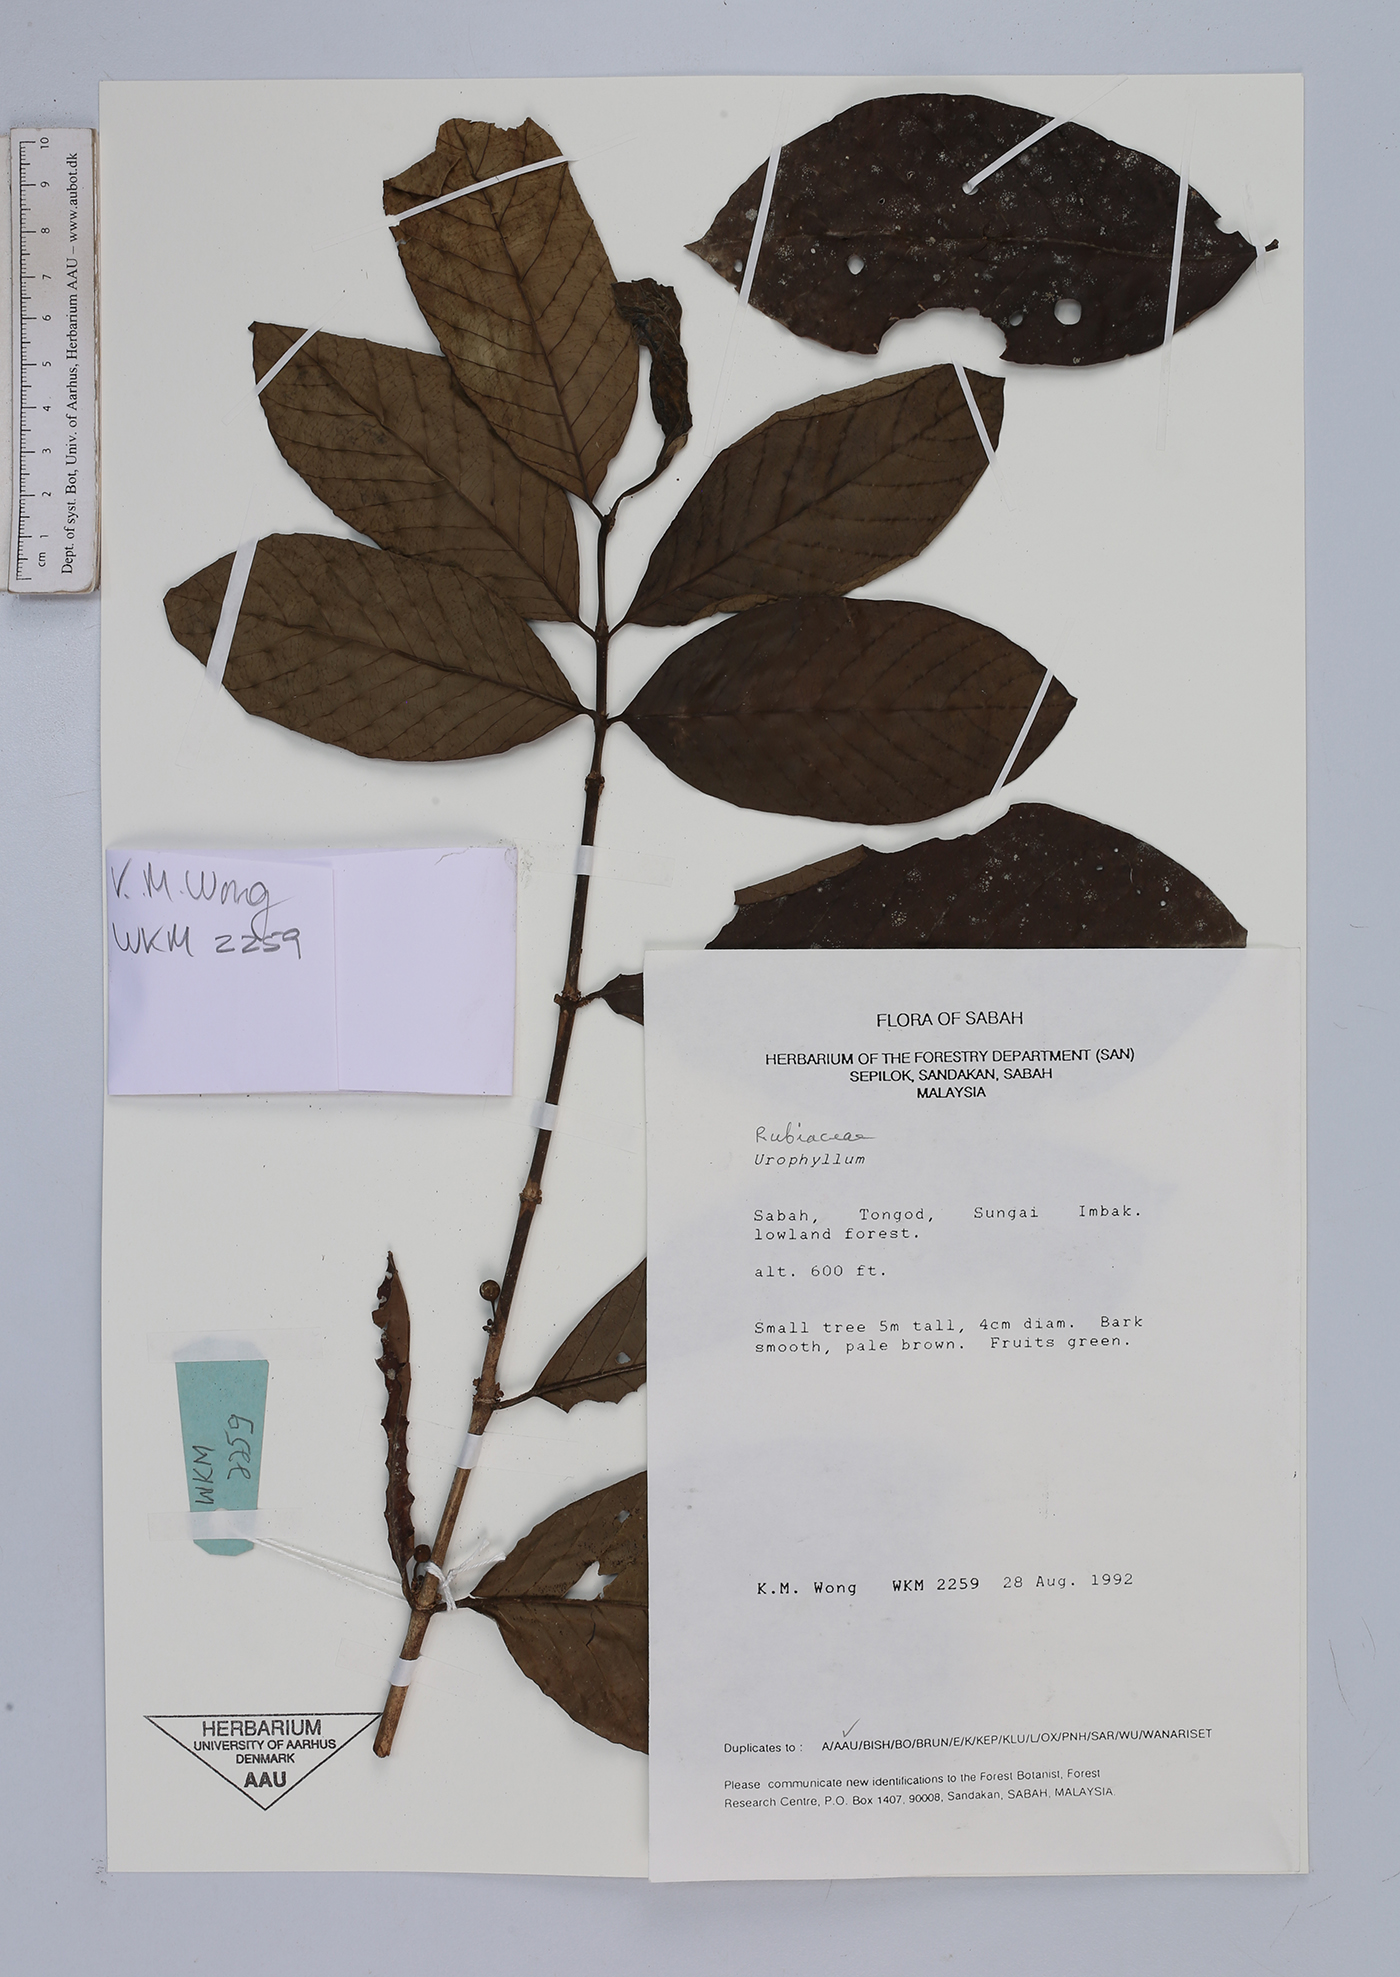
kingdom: Plantae
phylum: Tracheophyta
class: Magnoliopsida
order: Gentianales
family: Rubiaceae
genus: Urophyllum
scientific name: Urophyllum
